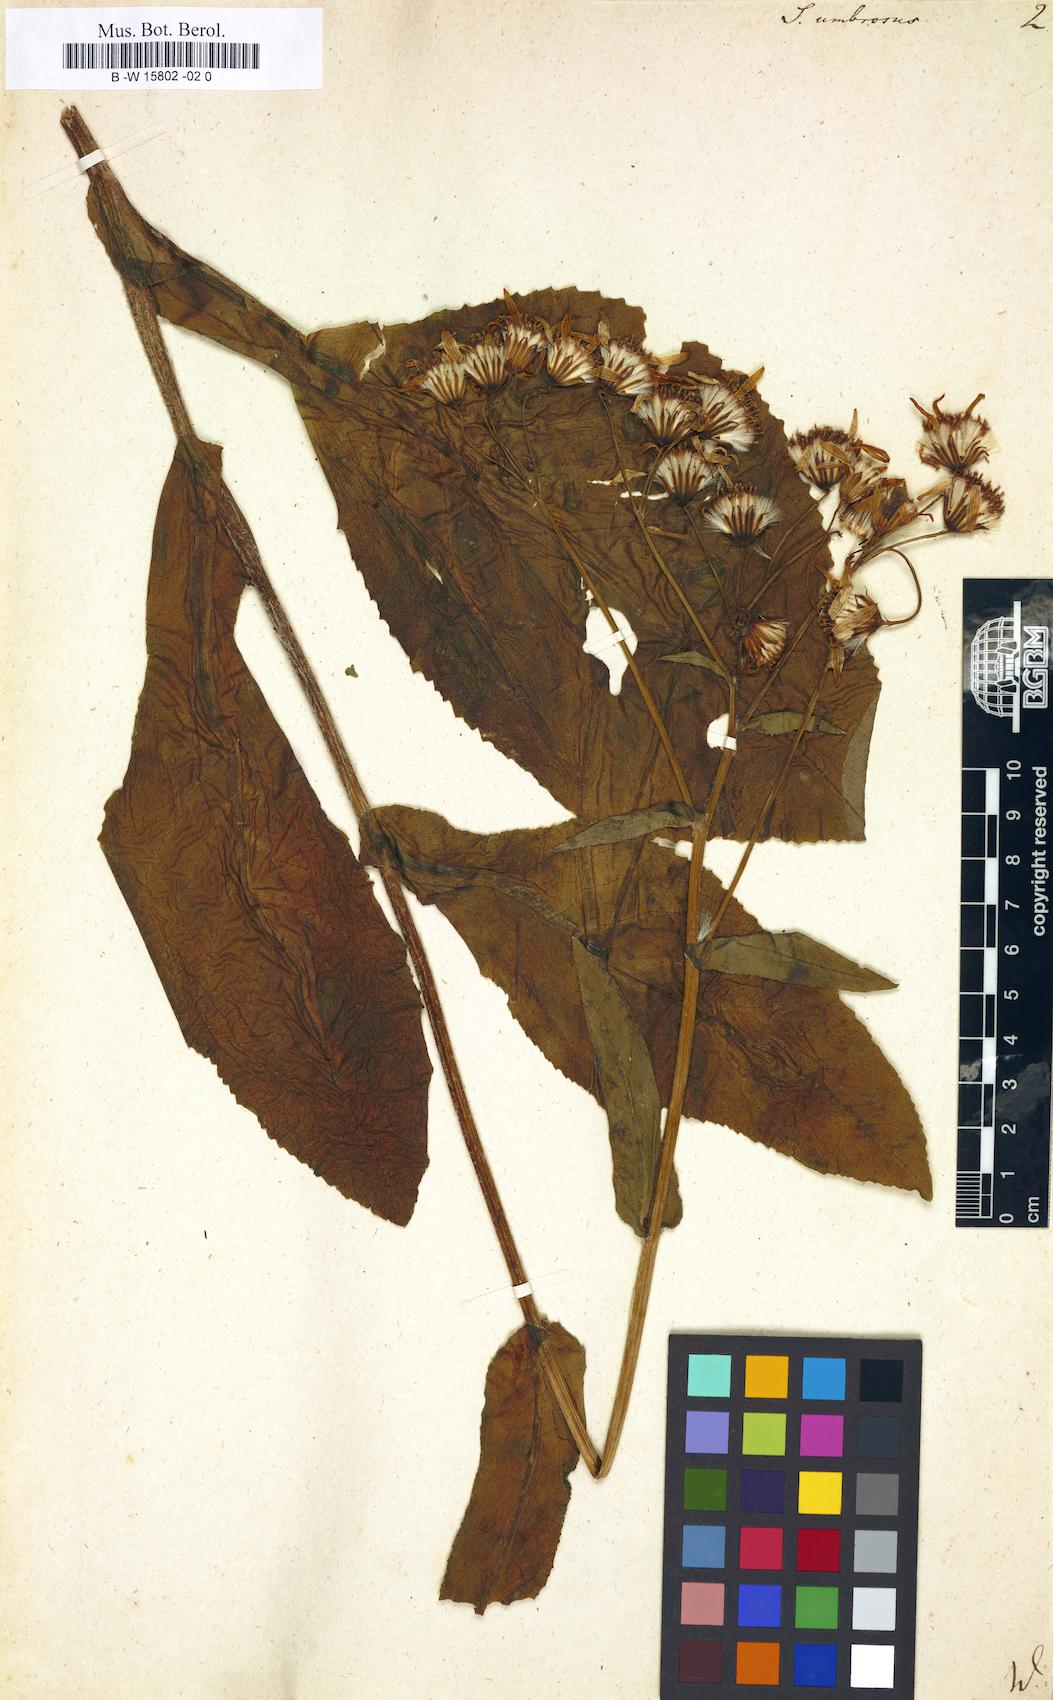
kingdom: Plantae
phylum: Tracheophyta
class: Magnoliopsida
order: Asterales
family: Asteraceae
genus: Senecio
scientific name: Senecio umbrosus
